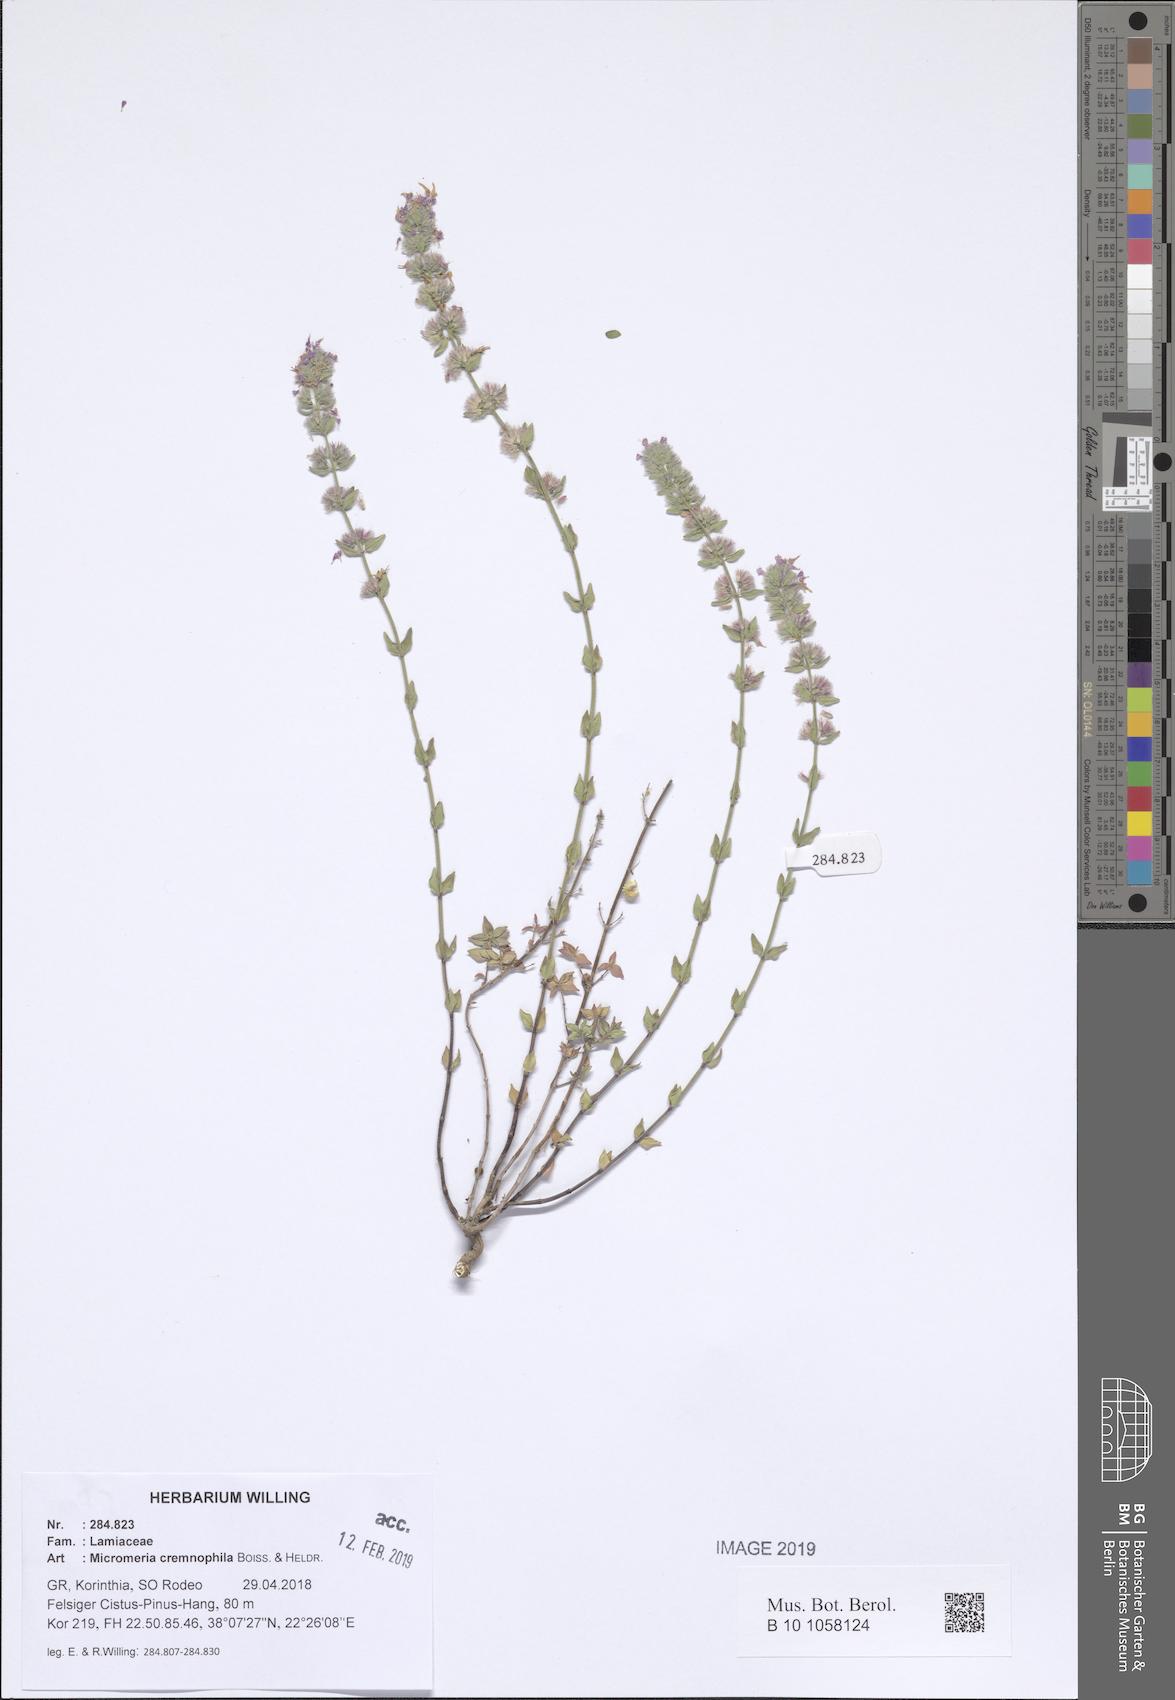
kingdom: Plantae
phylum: Tracheophyta
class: Magnoliopsida
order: Lamiales
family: Lamiaceae
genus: Micromeria
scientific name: Micromeria graeca
